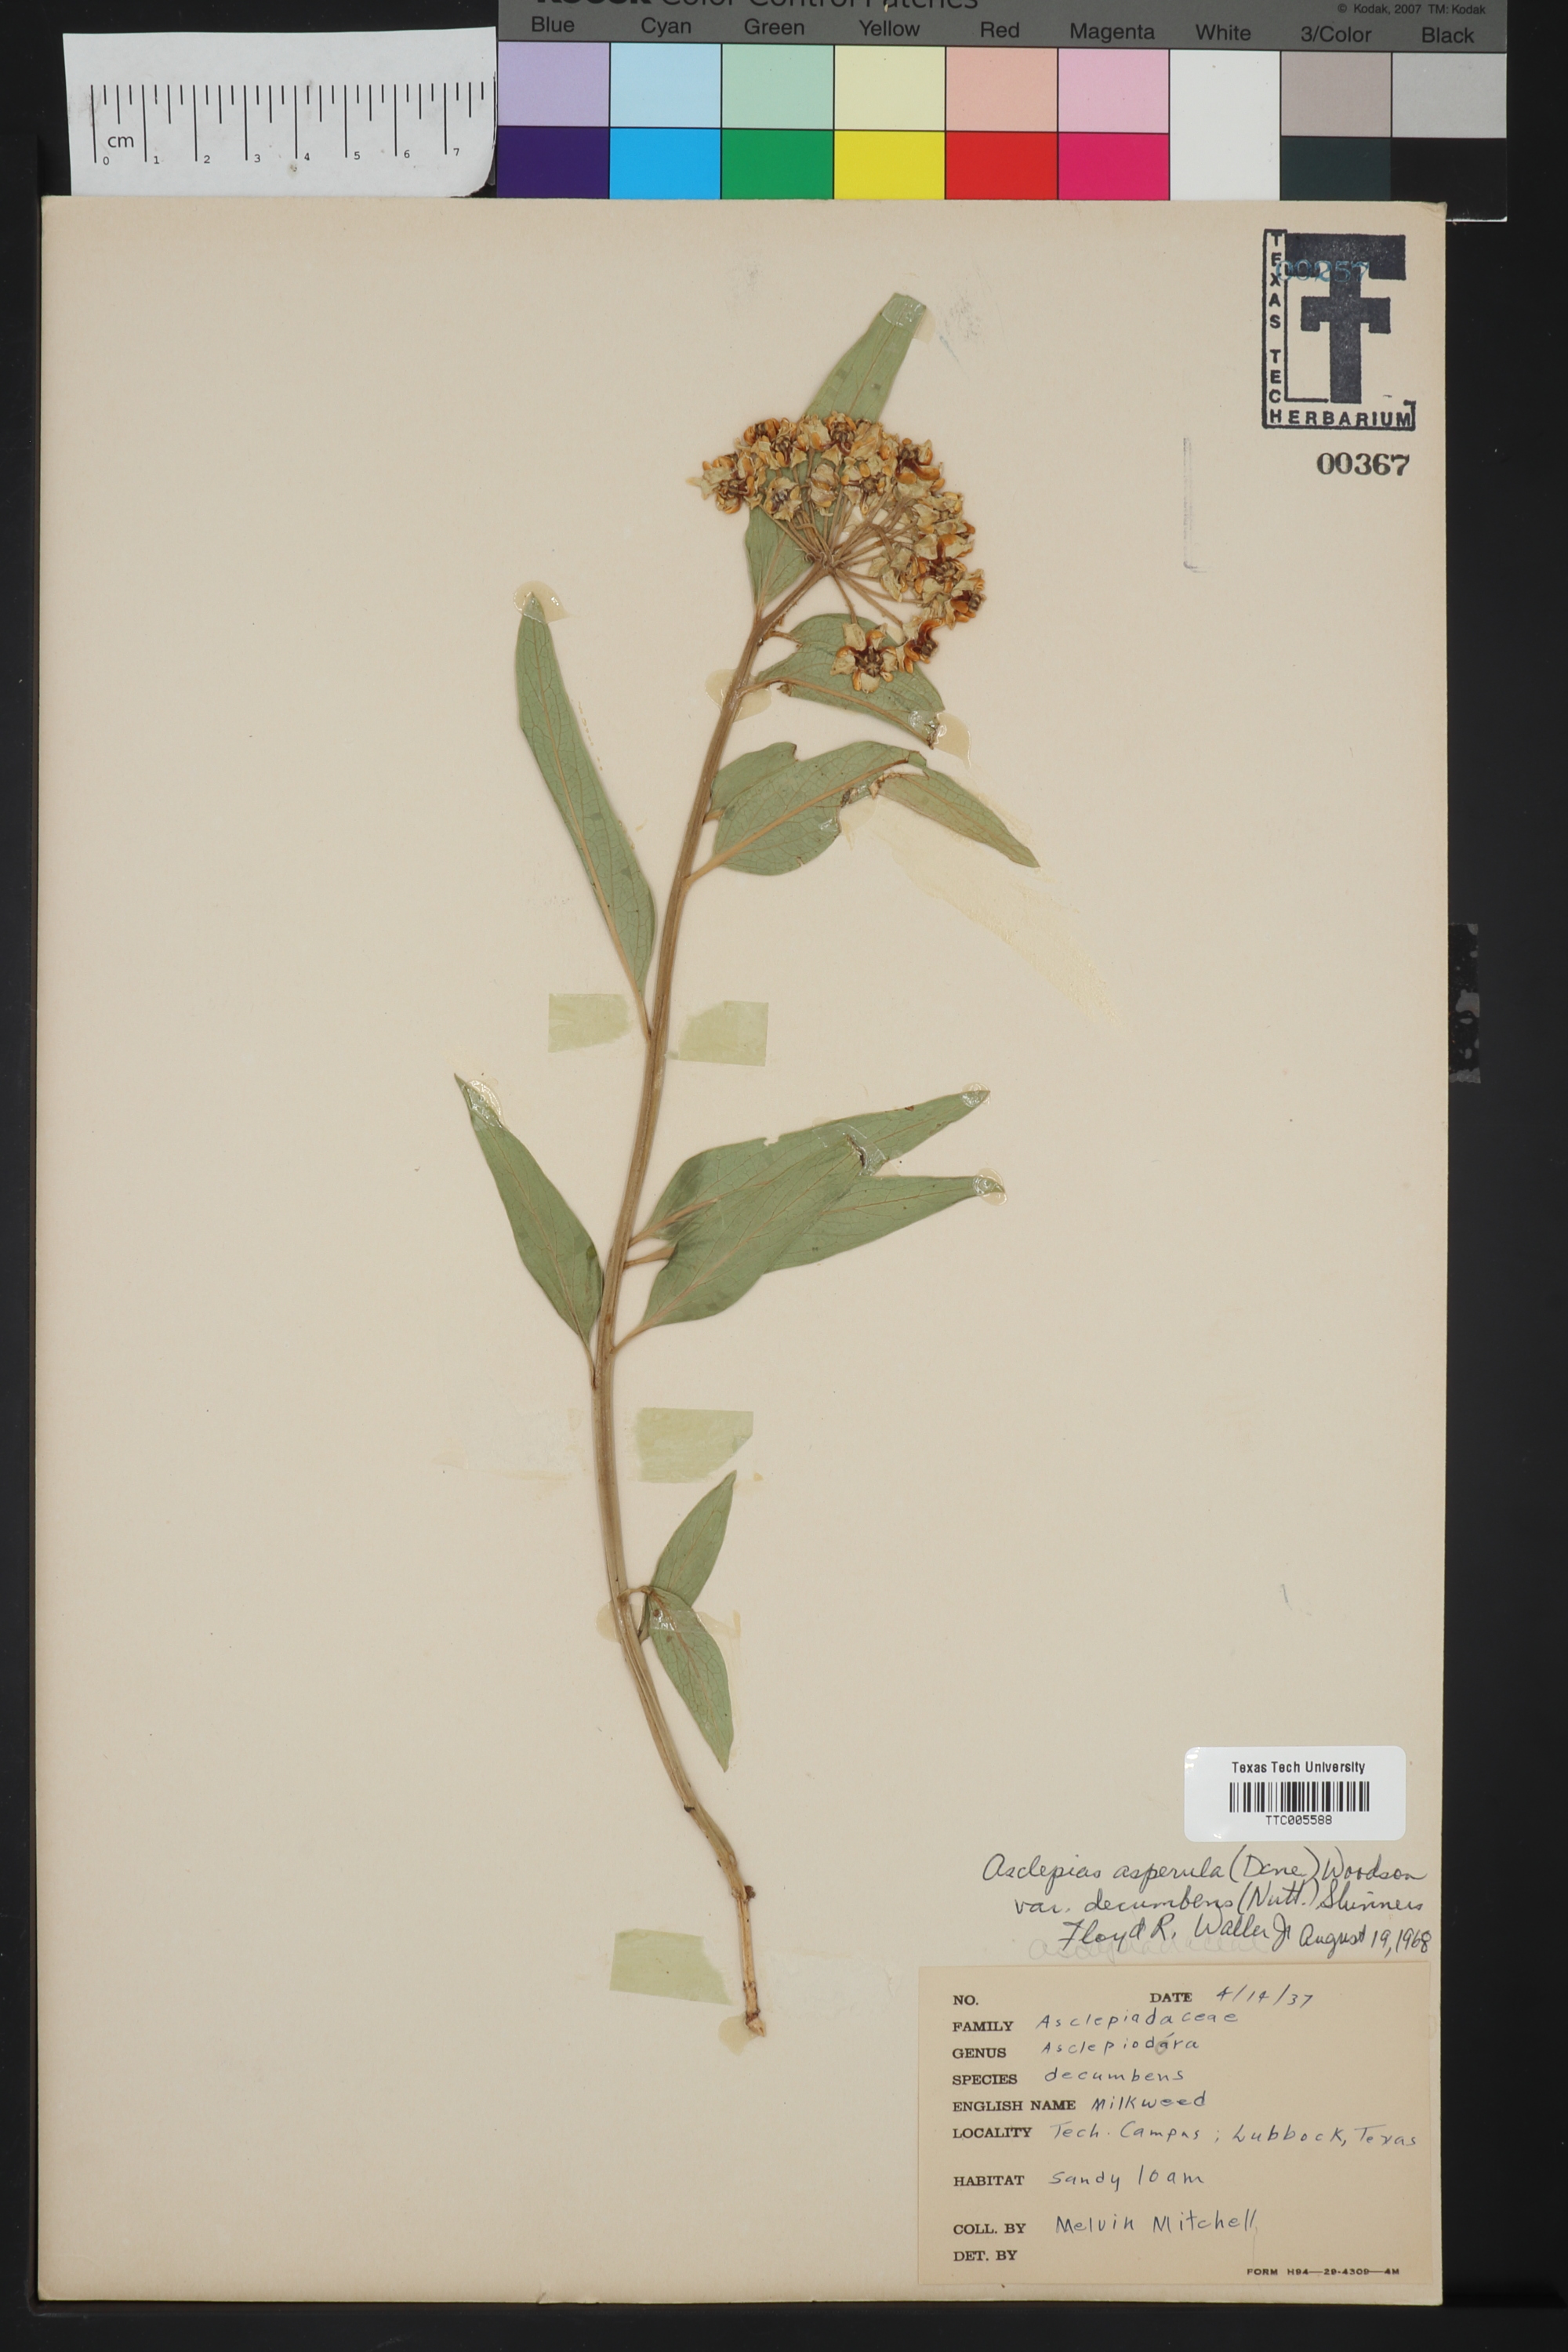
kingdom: Plantae
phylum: Tracheophyta
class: Magnoliopsida
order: Gentianales
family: Apocynaceae
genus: Asclepias
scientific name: Asclepias asperula
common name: Antelope horns
